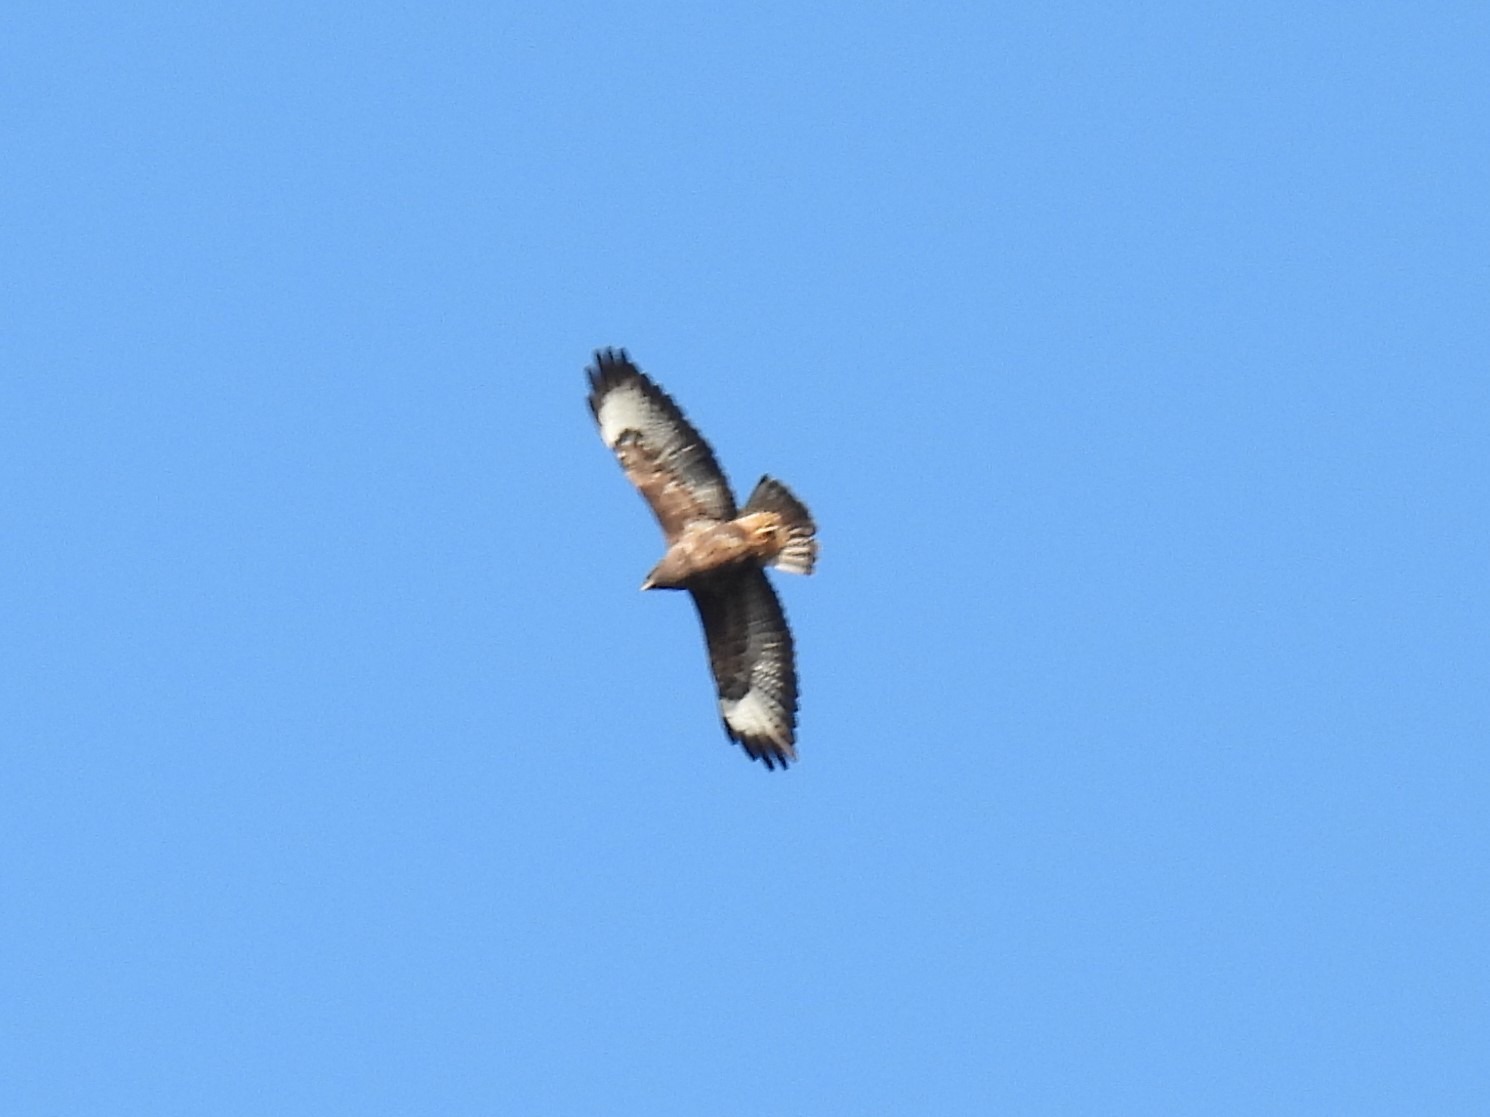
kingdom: Animalia
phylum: Chordata
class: Aves
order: Accipitriformes
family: Accipitridae
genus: Buteo
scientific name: Buteo buteo
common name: Musvåge
